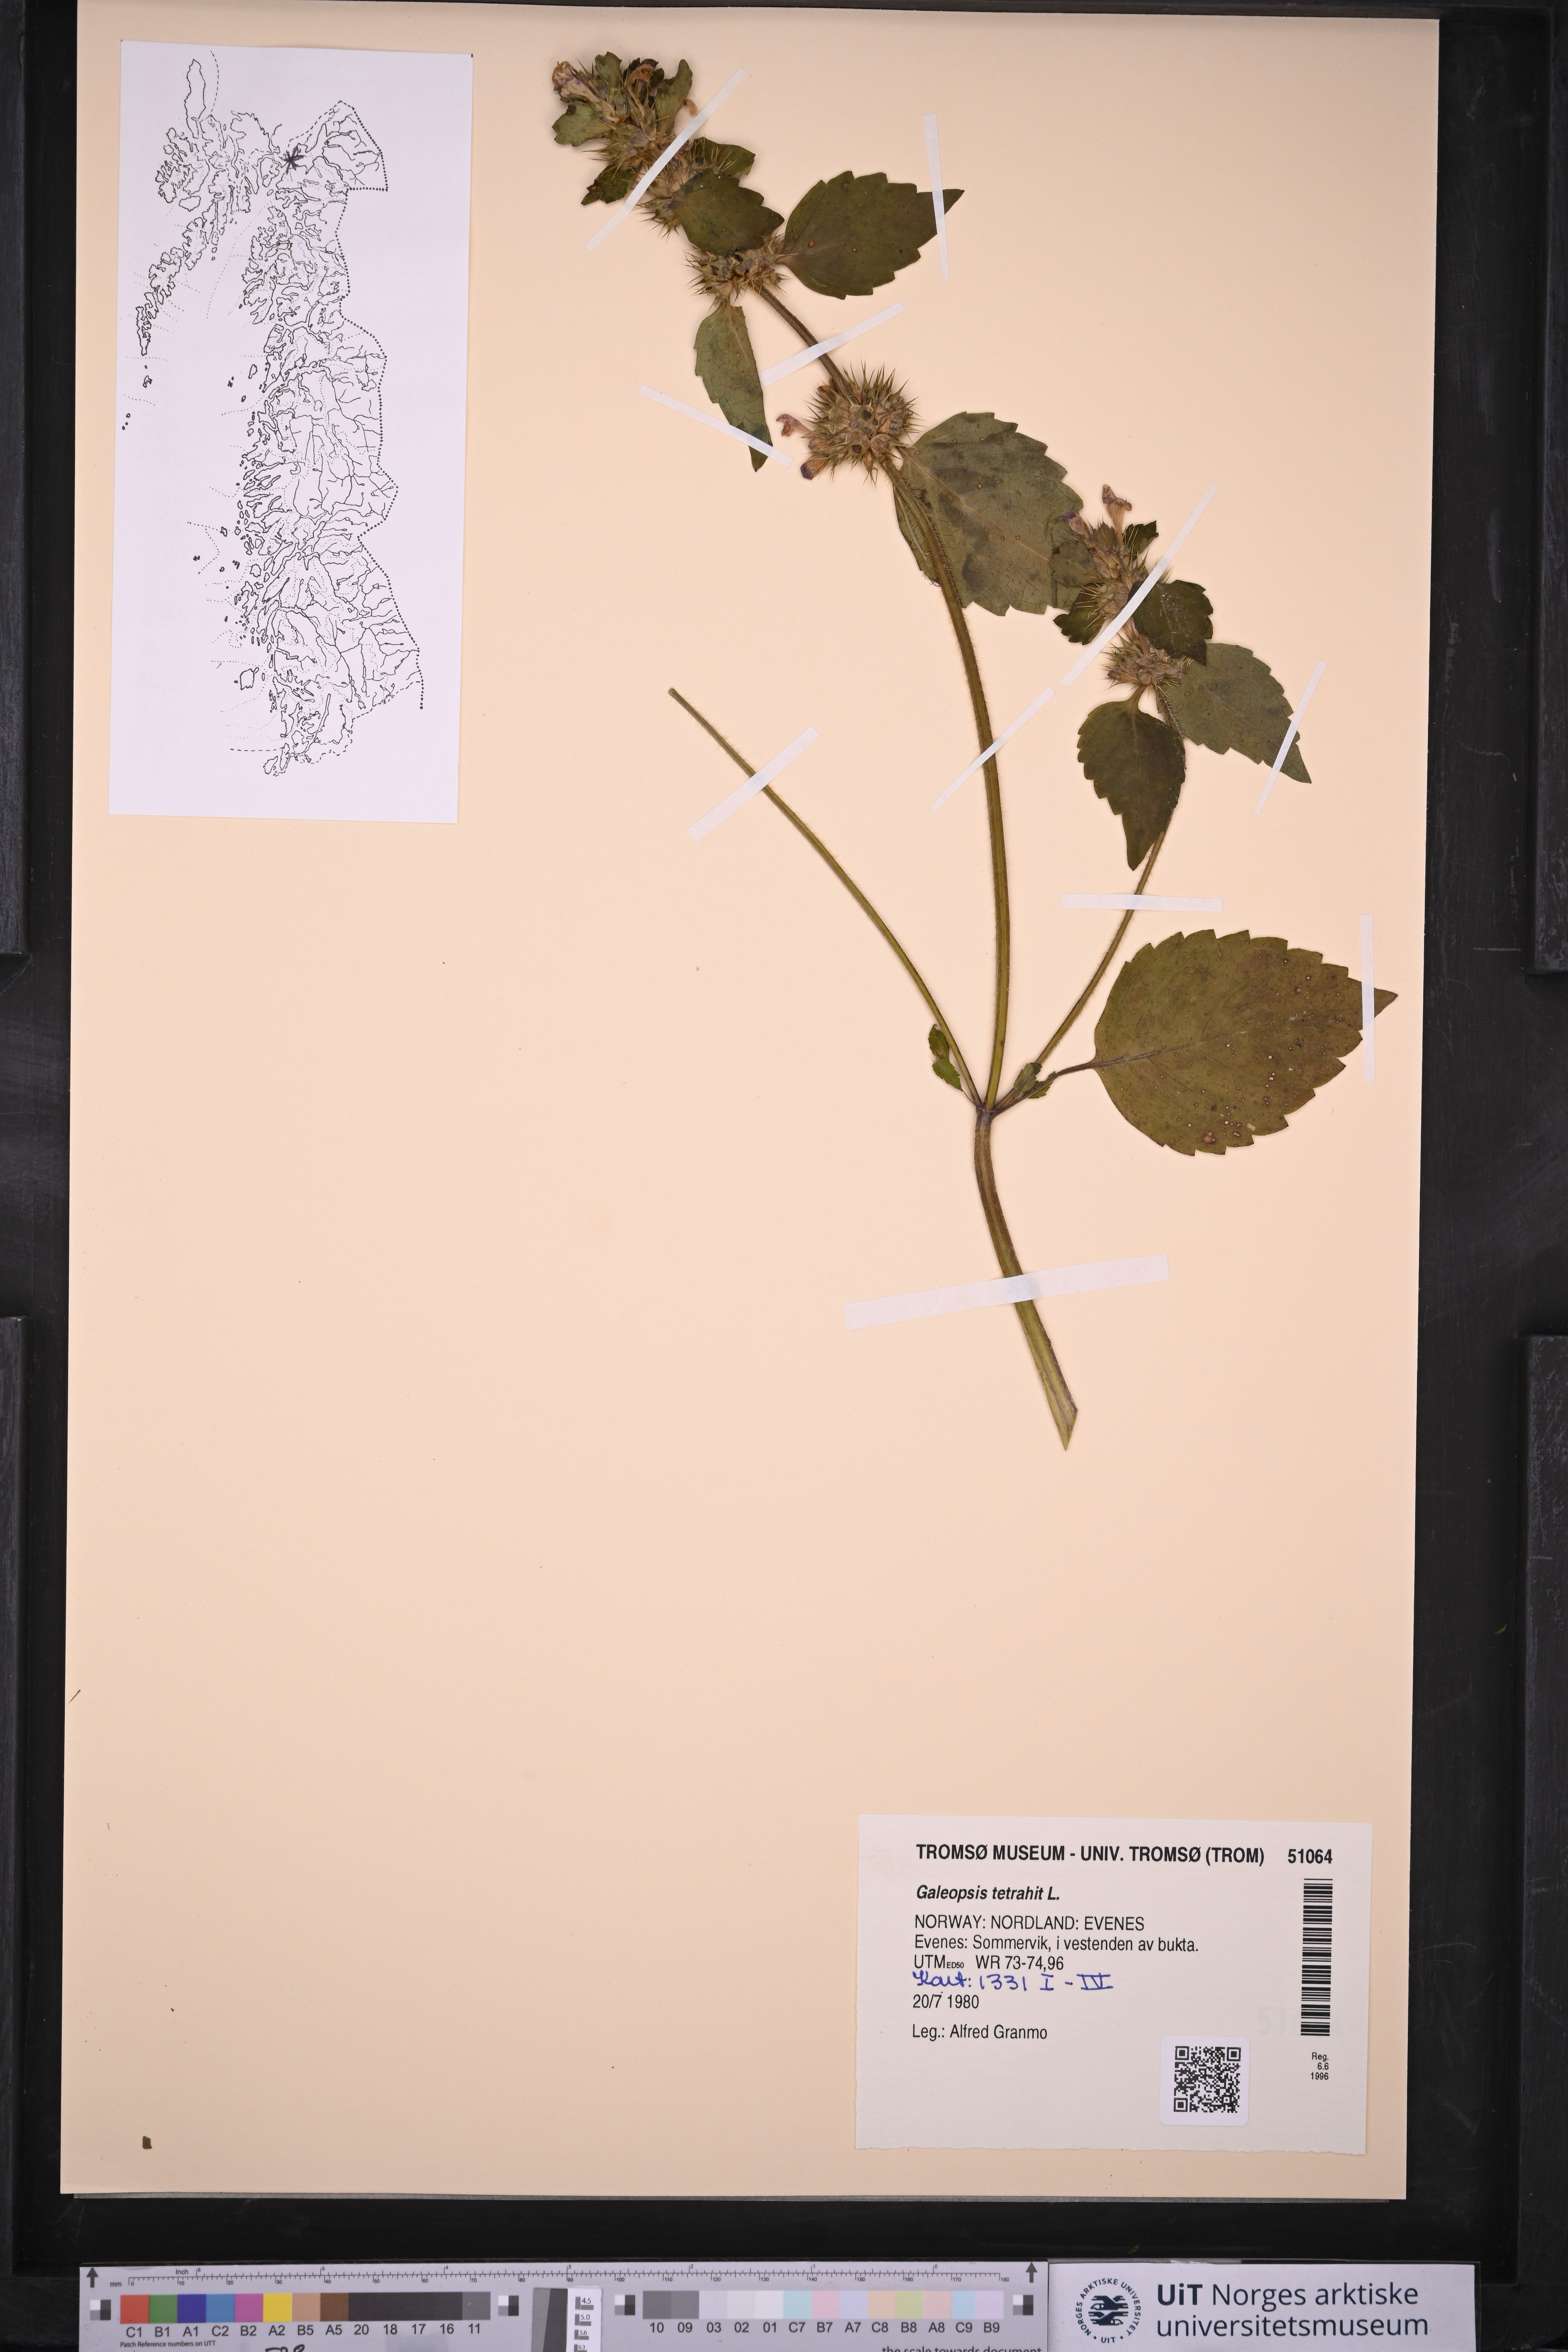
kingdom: Plantae
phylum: Tracheophyta
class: Magnoliopsida
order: Lamiales
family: Lamiaceae
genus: Galeopsis
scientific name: Galeopsis tetrahit
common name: Common hemp-nettle
